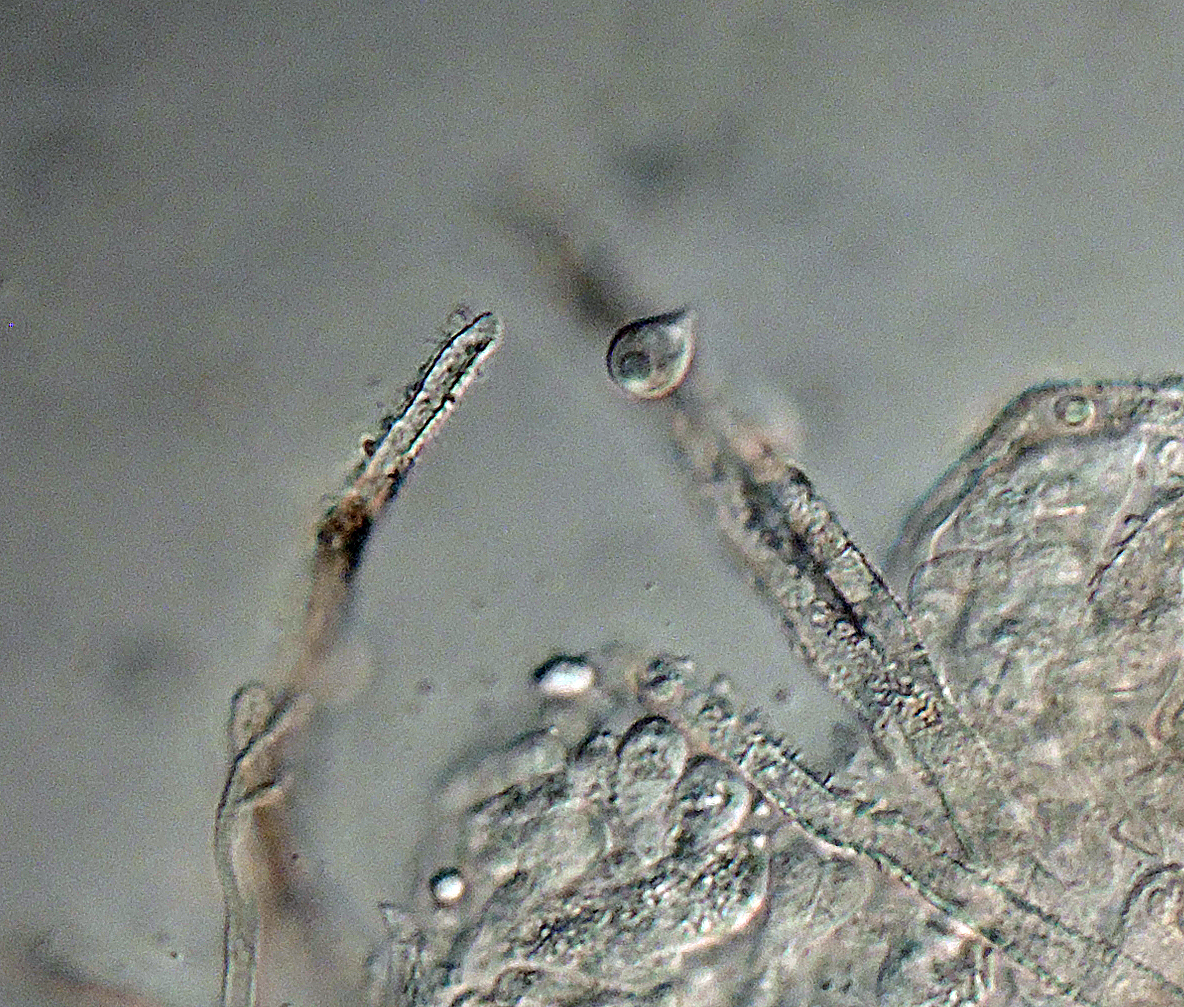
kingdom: Fungi
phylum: Basidiomycota
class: Agaricomycetes
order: Agaricales
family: Tricholomataceae
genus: Pseudolasiobolus
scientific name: Pseudolasiobolus minutissimus
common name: plejadeskål
